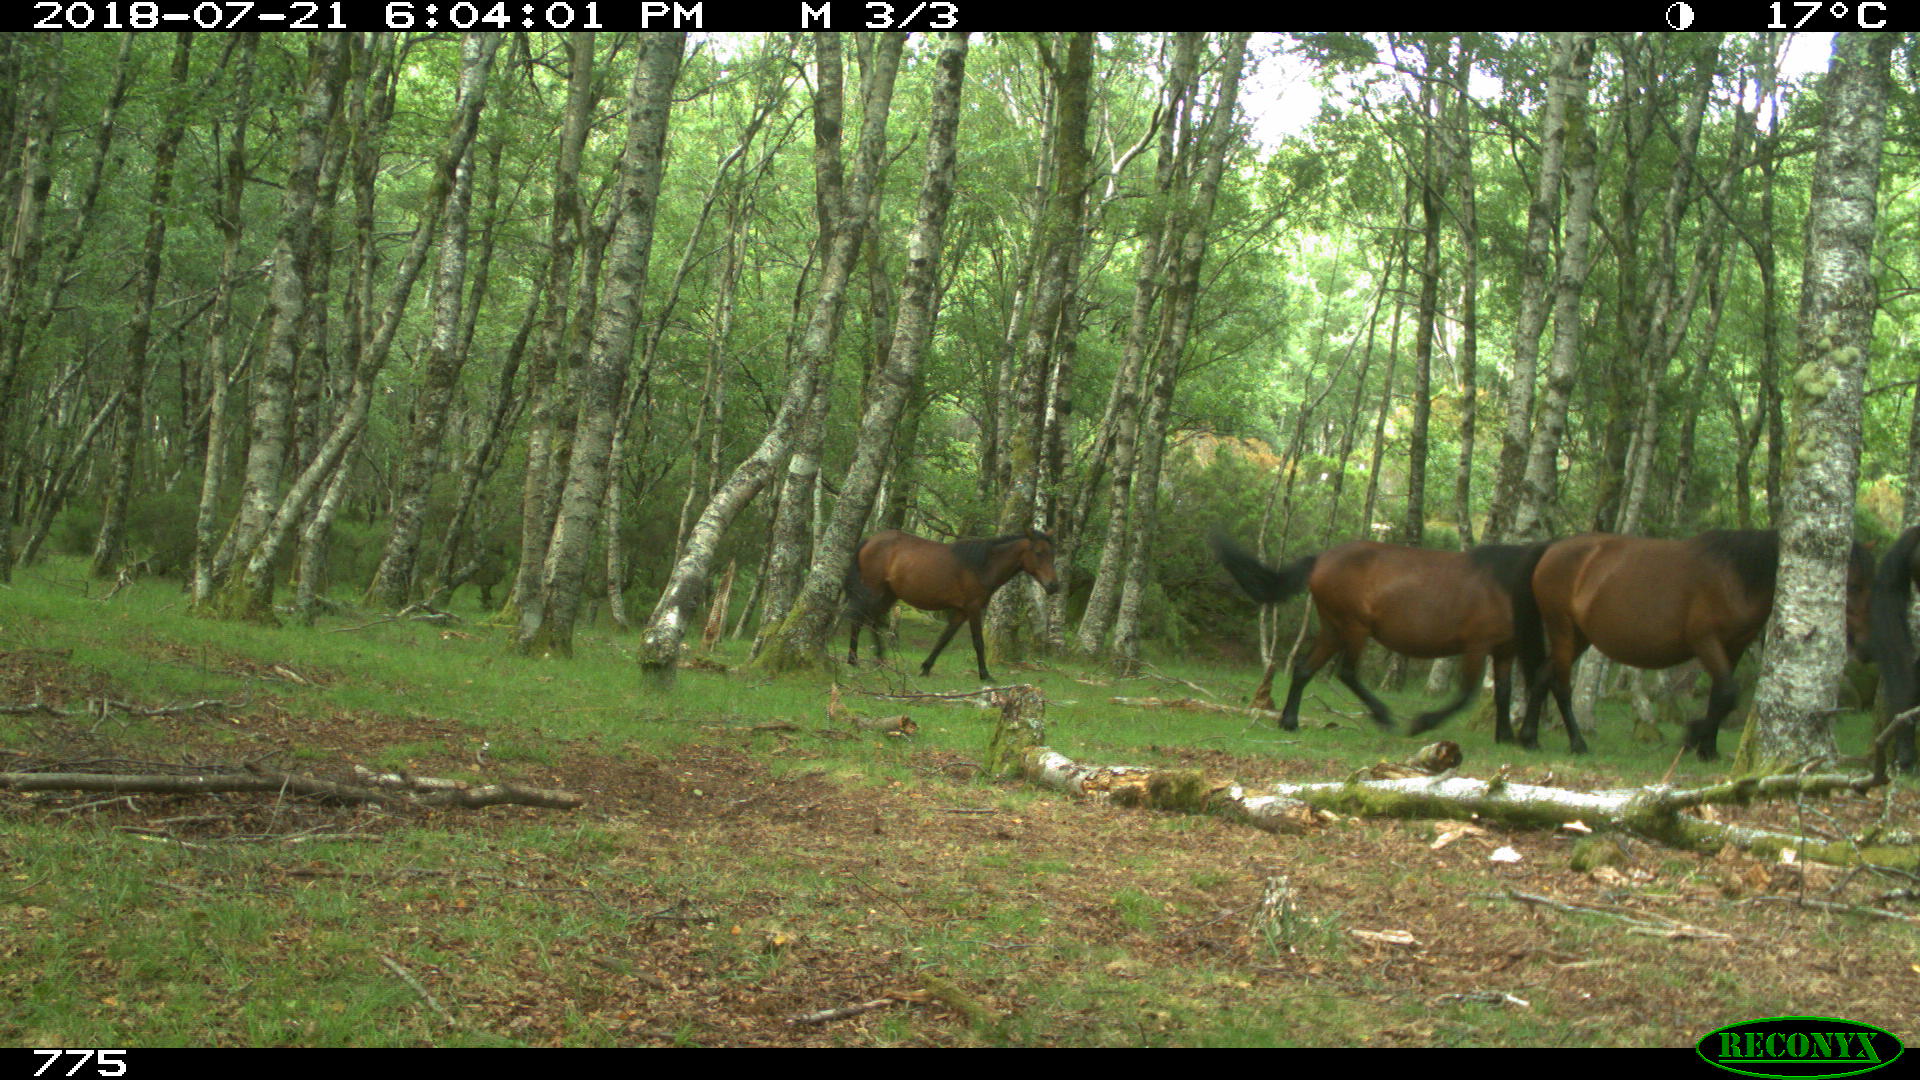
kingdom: Animalia
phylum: Chordata
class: Mammalia
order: Perissodactyla
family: Equidae
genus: Equus
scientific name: Equus caballus
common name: Horse
